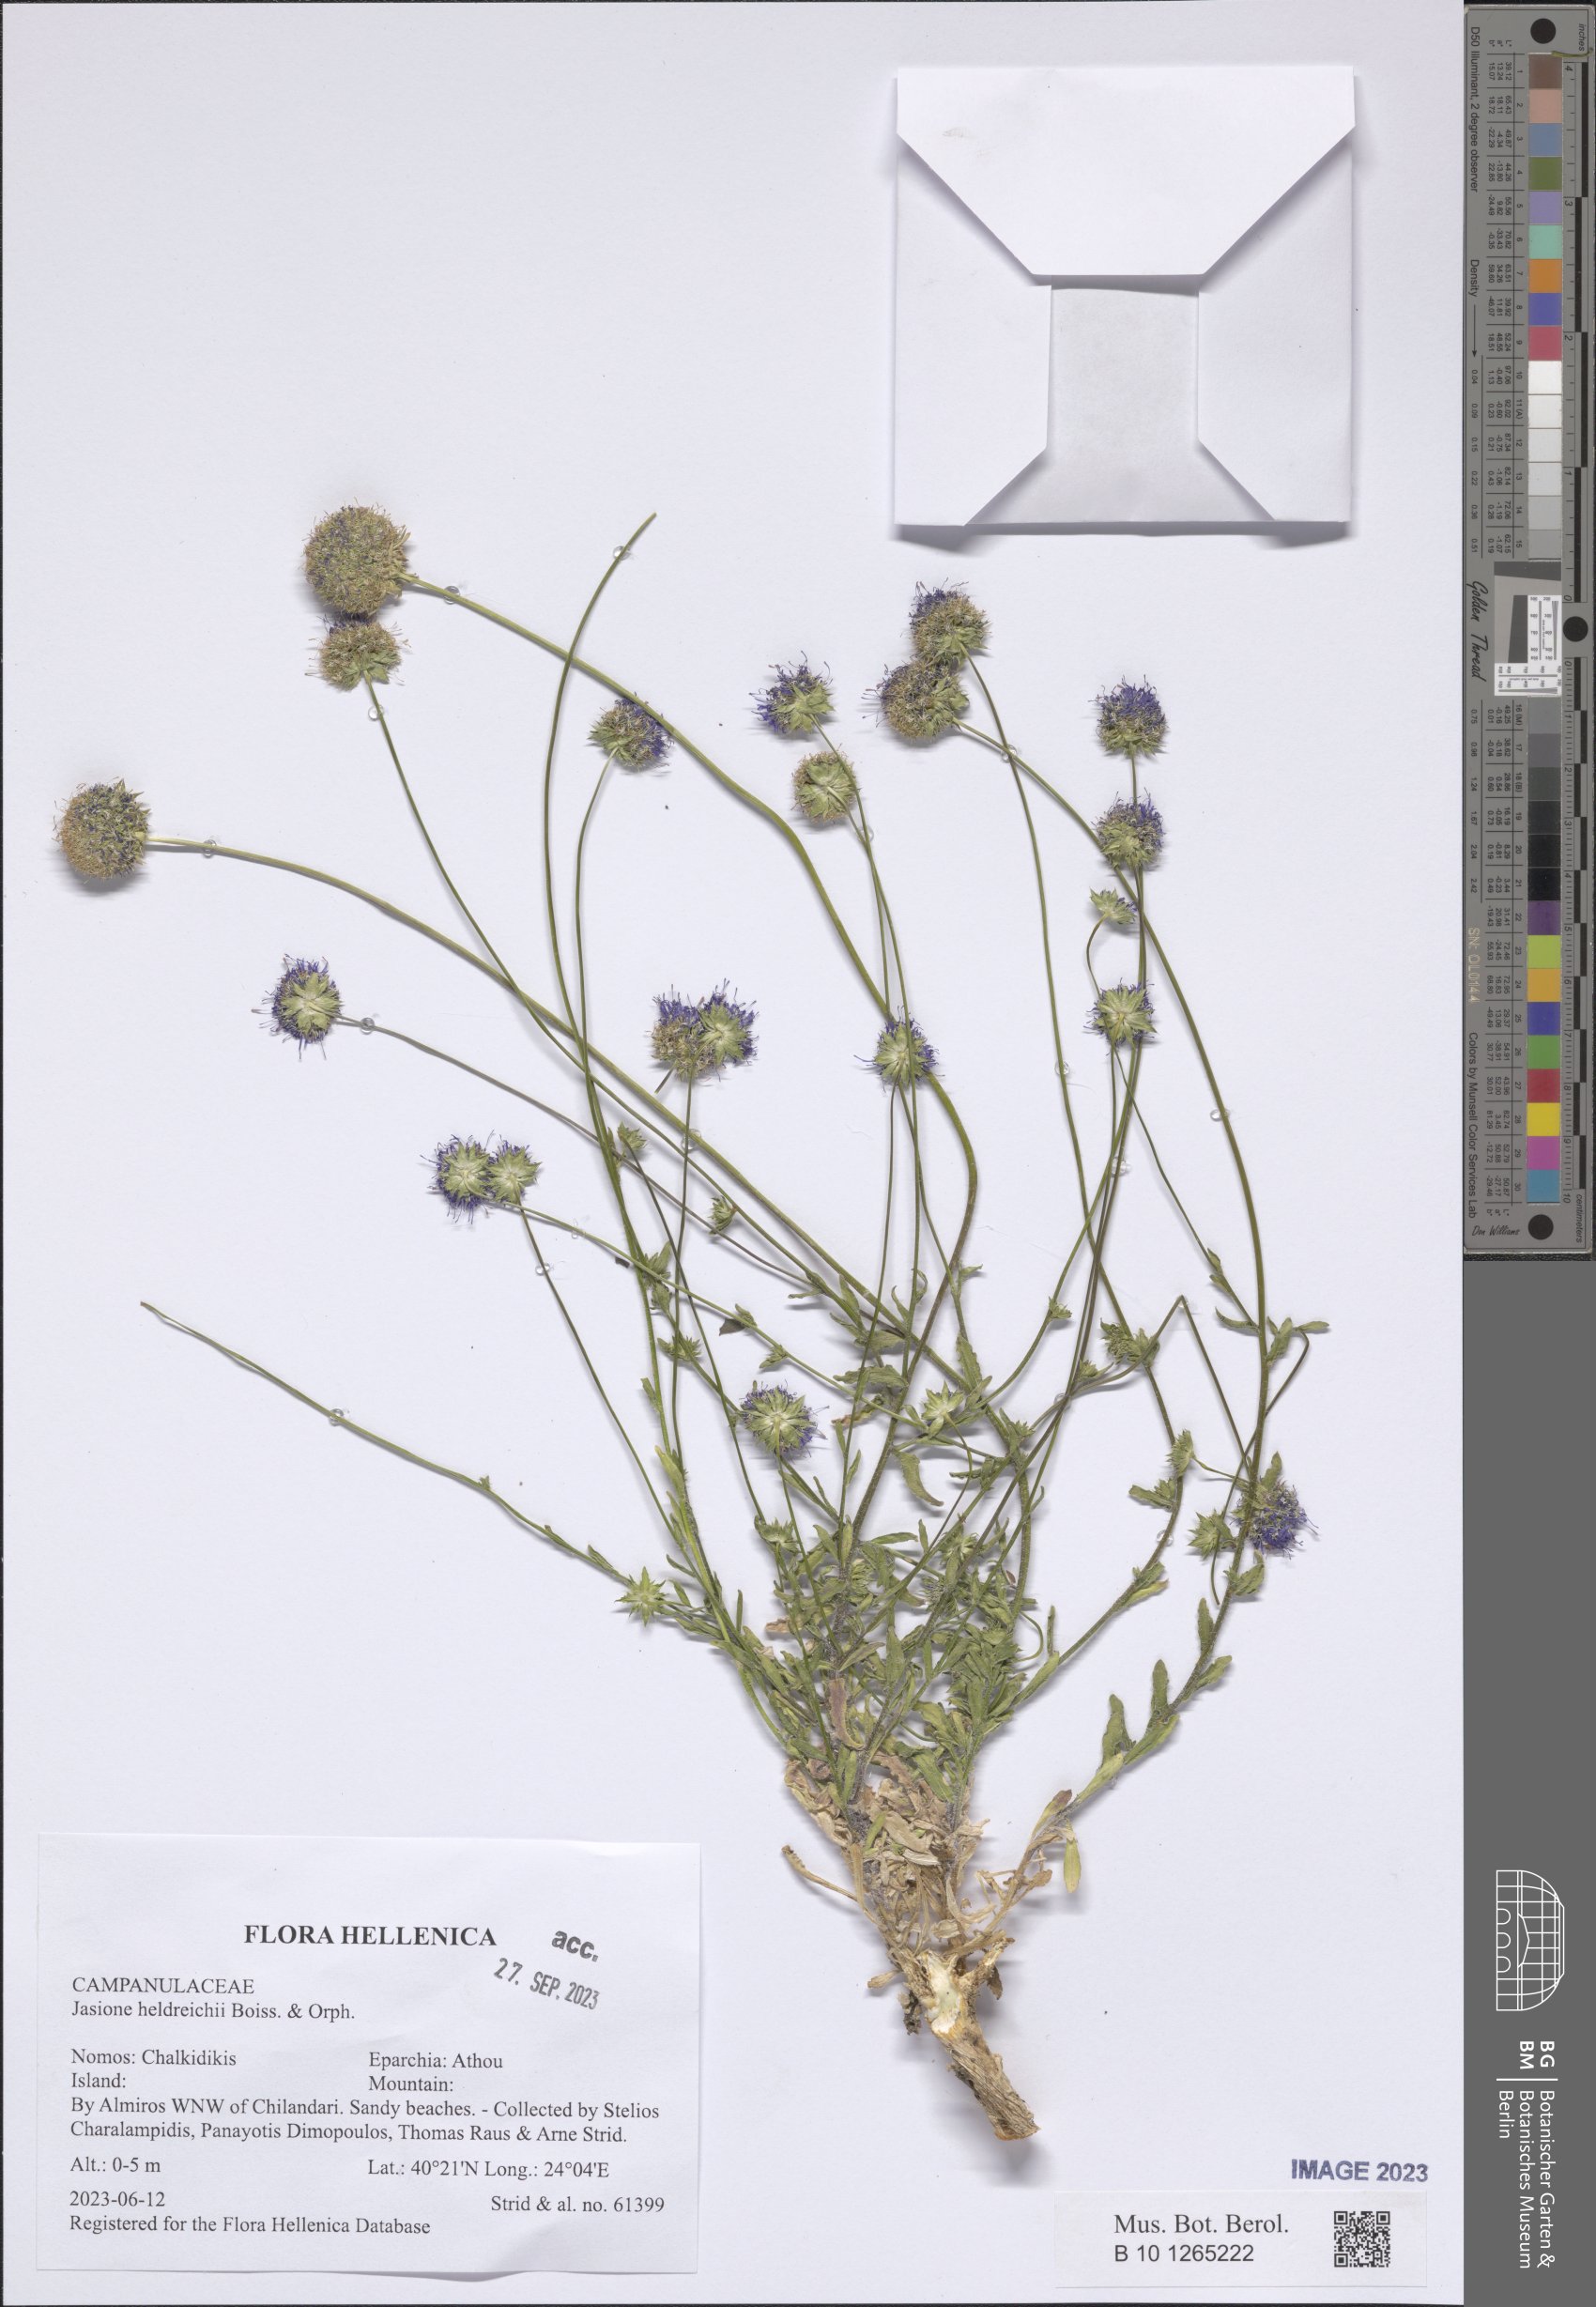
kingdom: Plantae
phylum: Tracheophyta
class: Magnoliopsida
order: Asterales
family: Campanulaceae
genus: Jasione
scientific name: Jasione heldreichii
